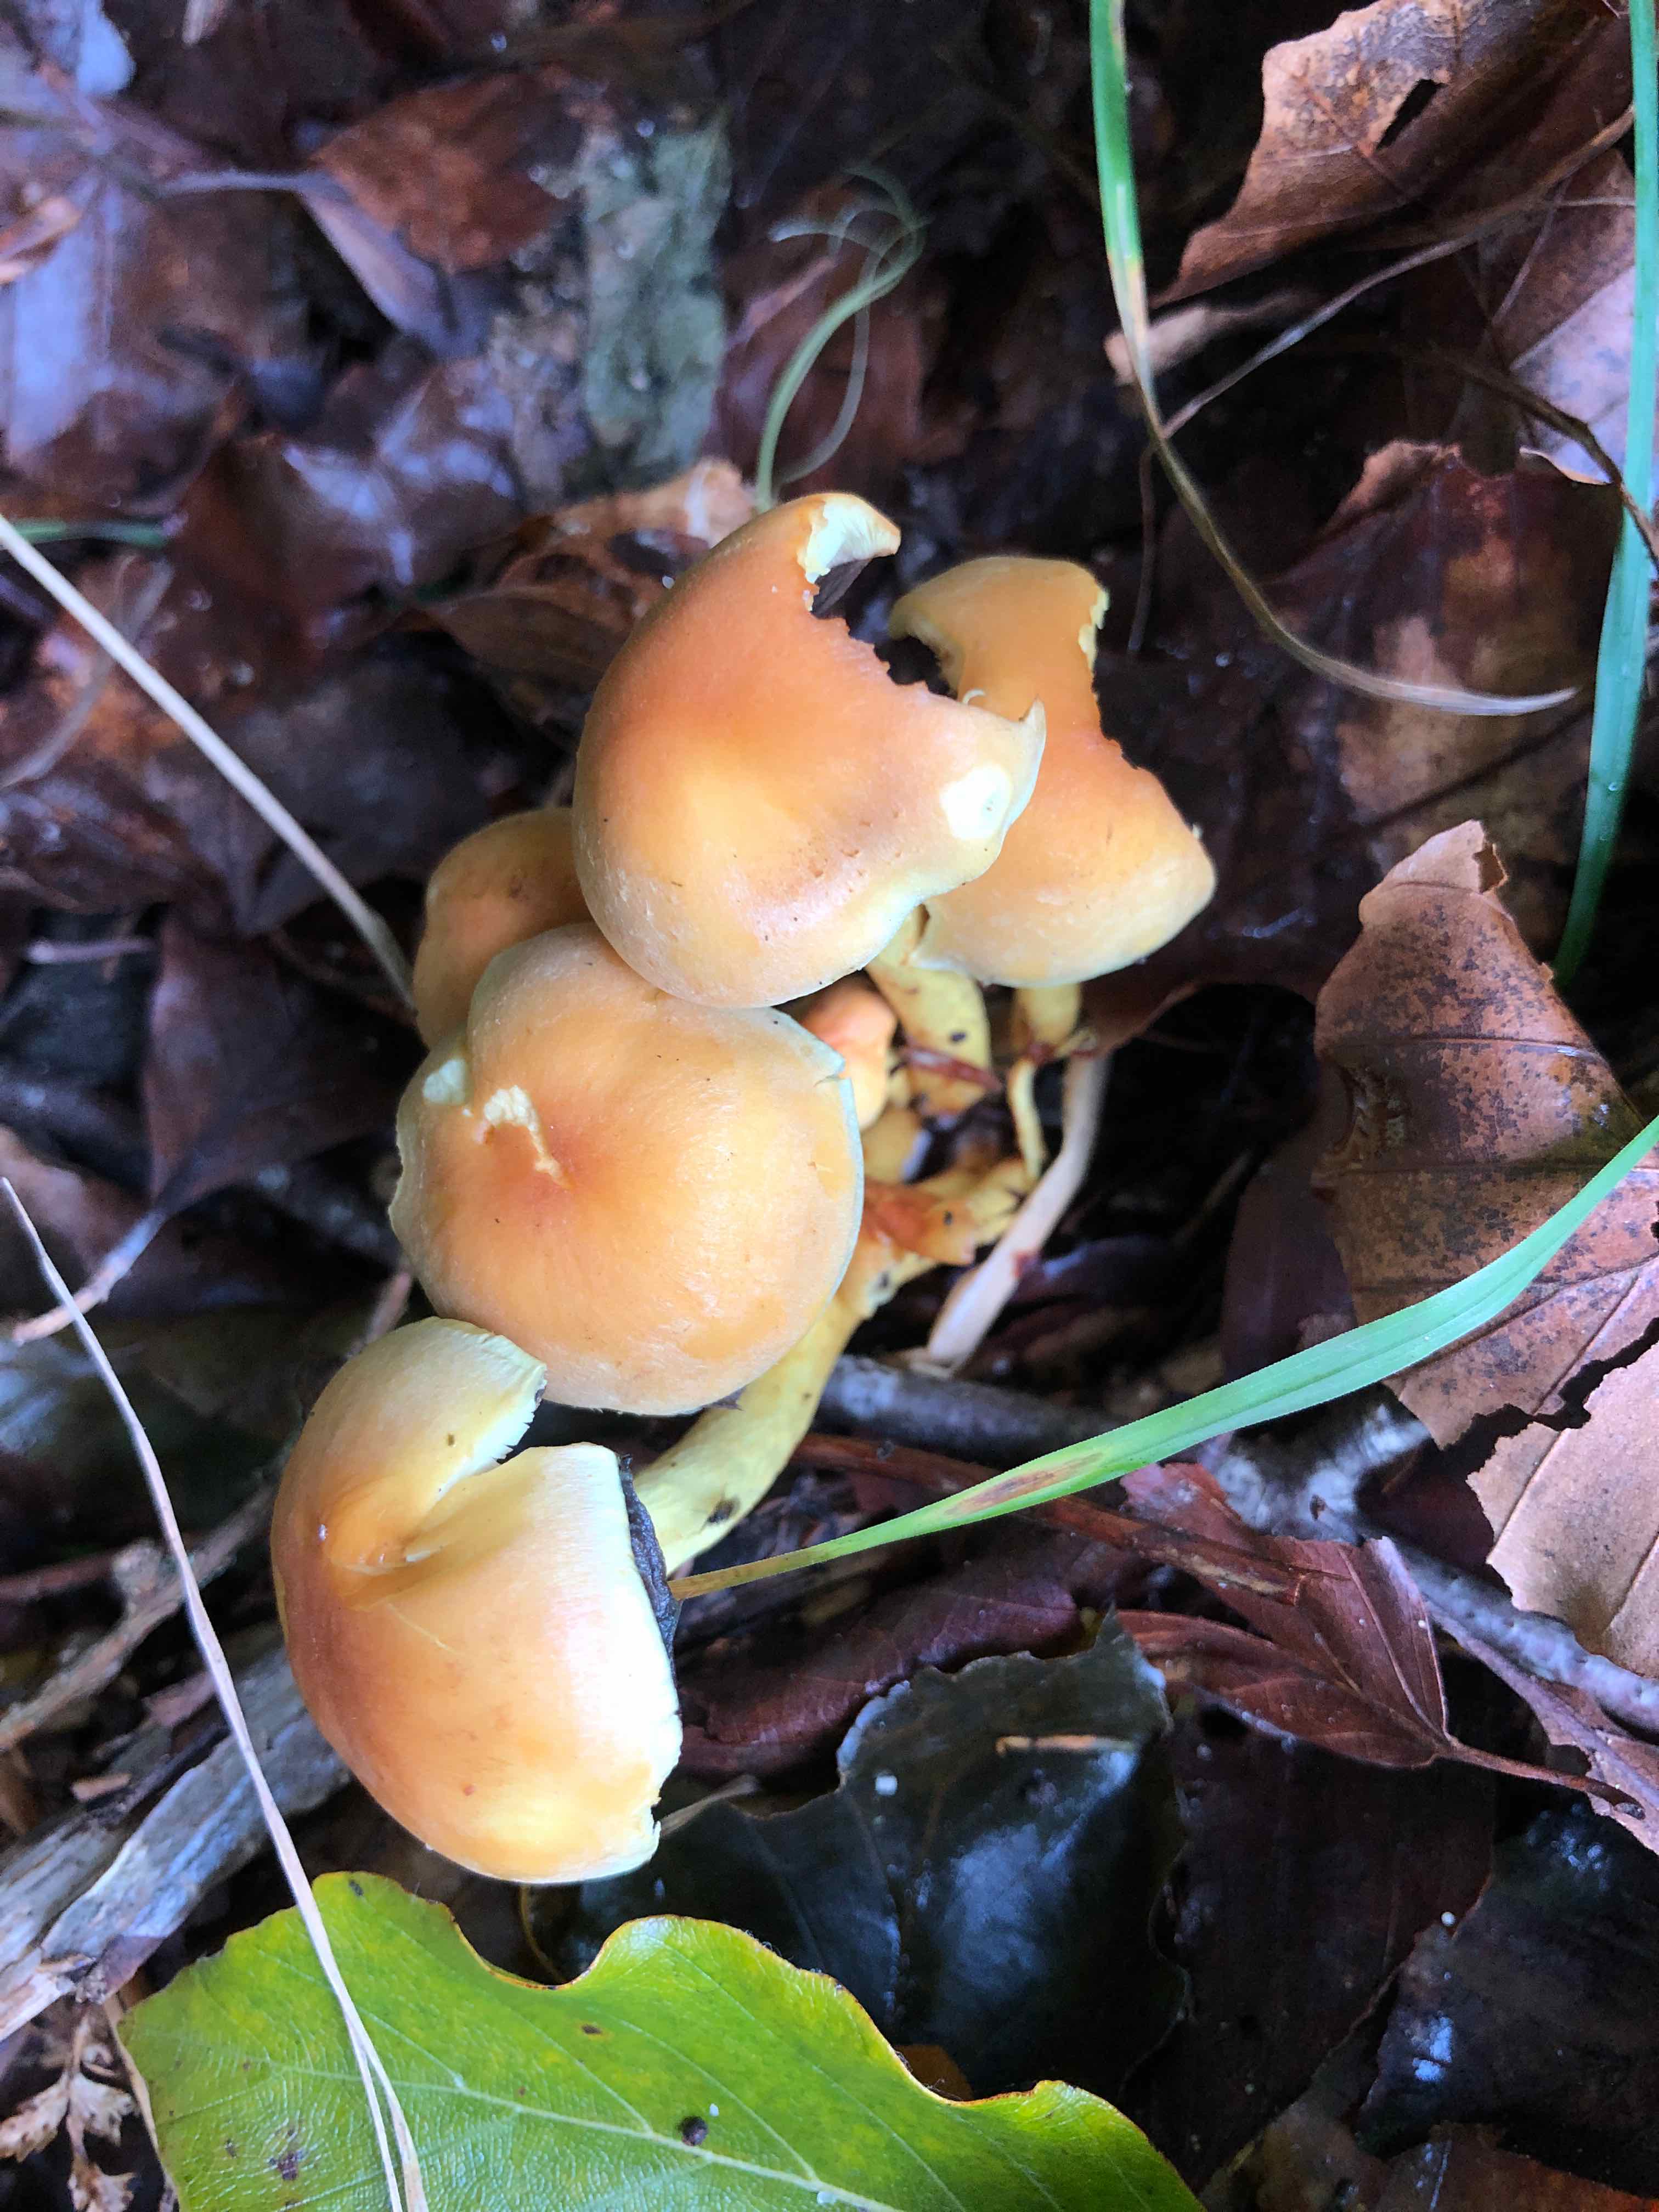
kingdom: Fungi
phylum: Basidiomycota
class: Agaricomycetes
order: Agaricales
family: Strophariaceae
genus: Hypholoma
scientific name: Hypholoma fasciculare
